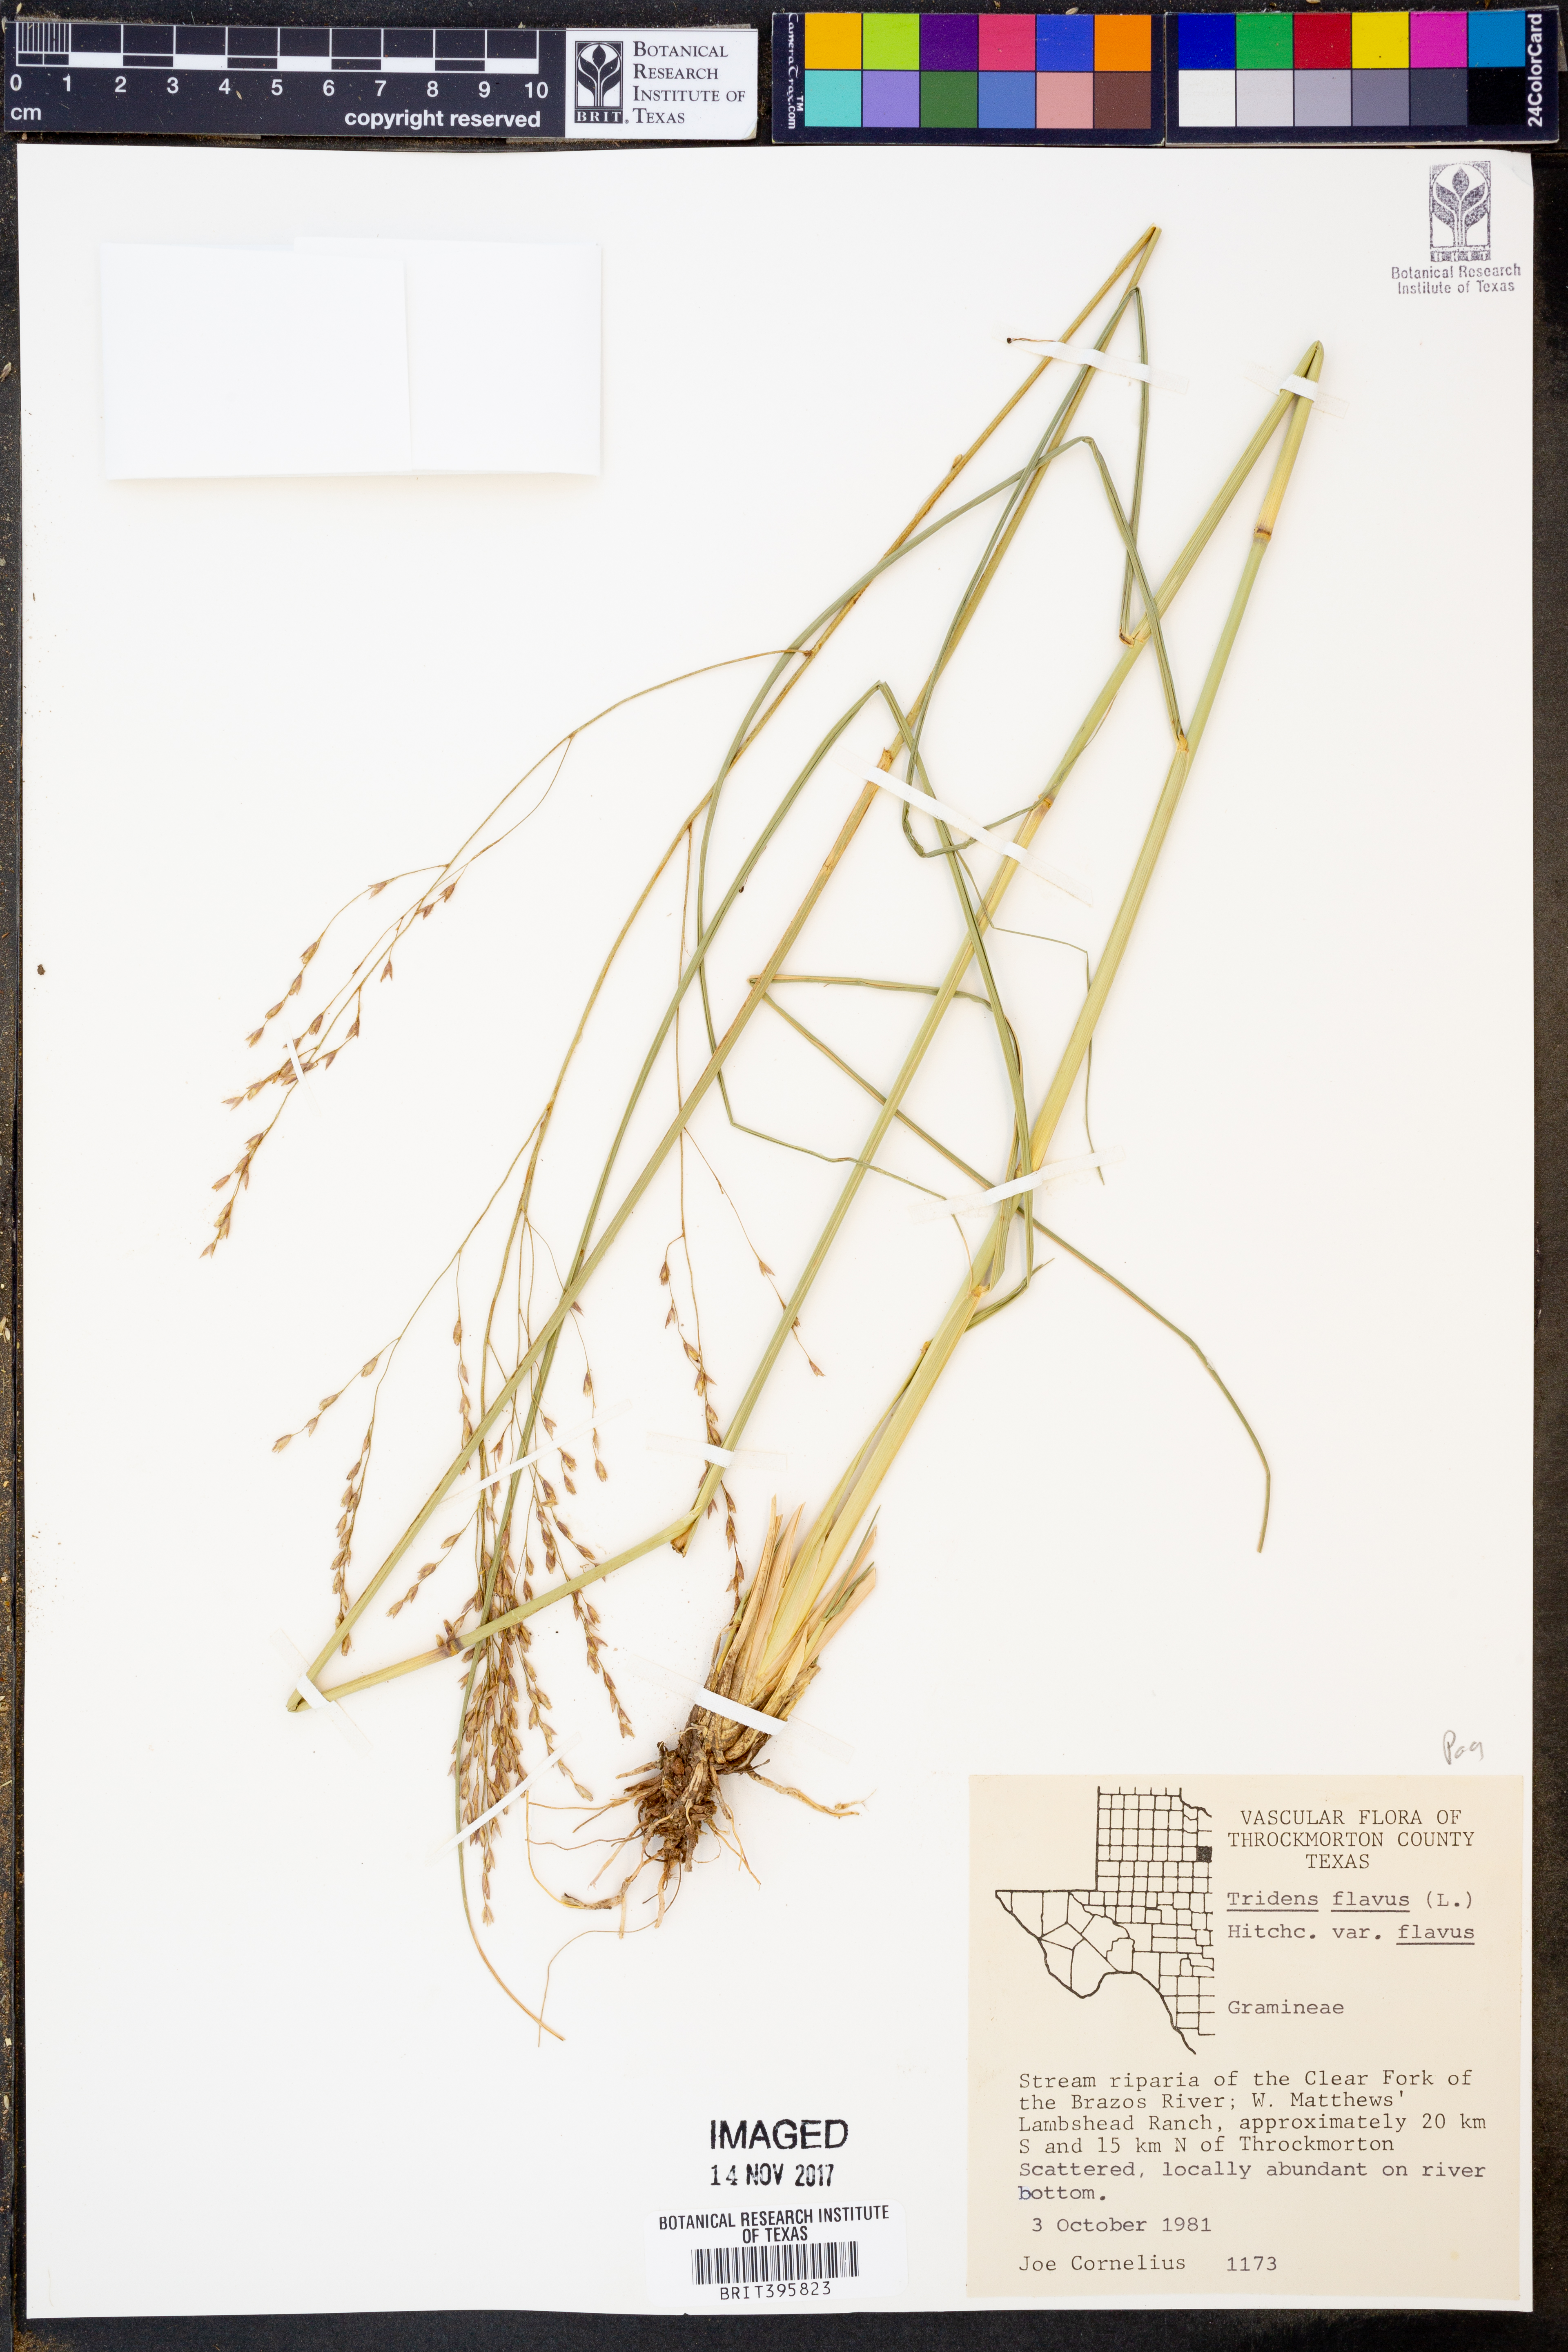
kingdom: Plantae
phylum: Tracheophyta
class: Liliopsida
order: Poales
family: Poaceae
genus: Tridens
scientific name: Tridens flavus
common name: Purpletop
